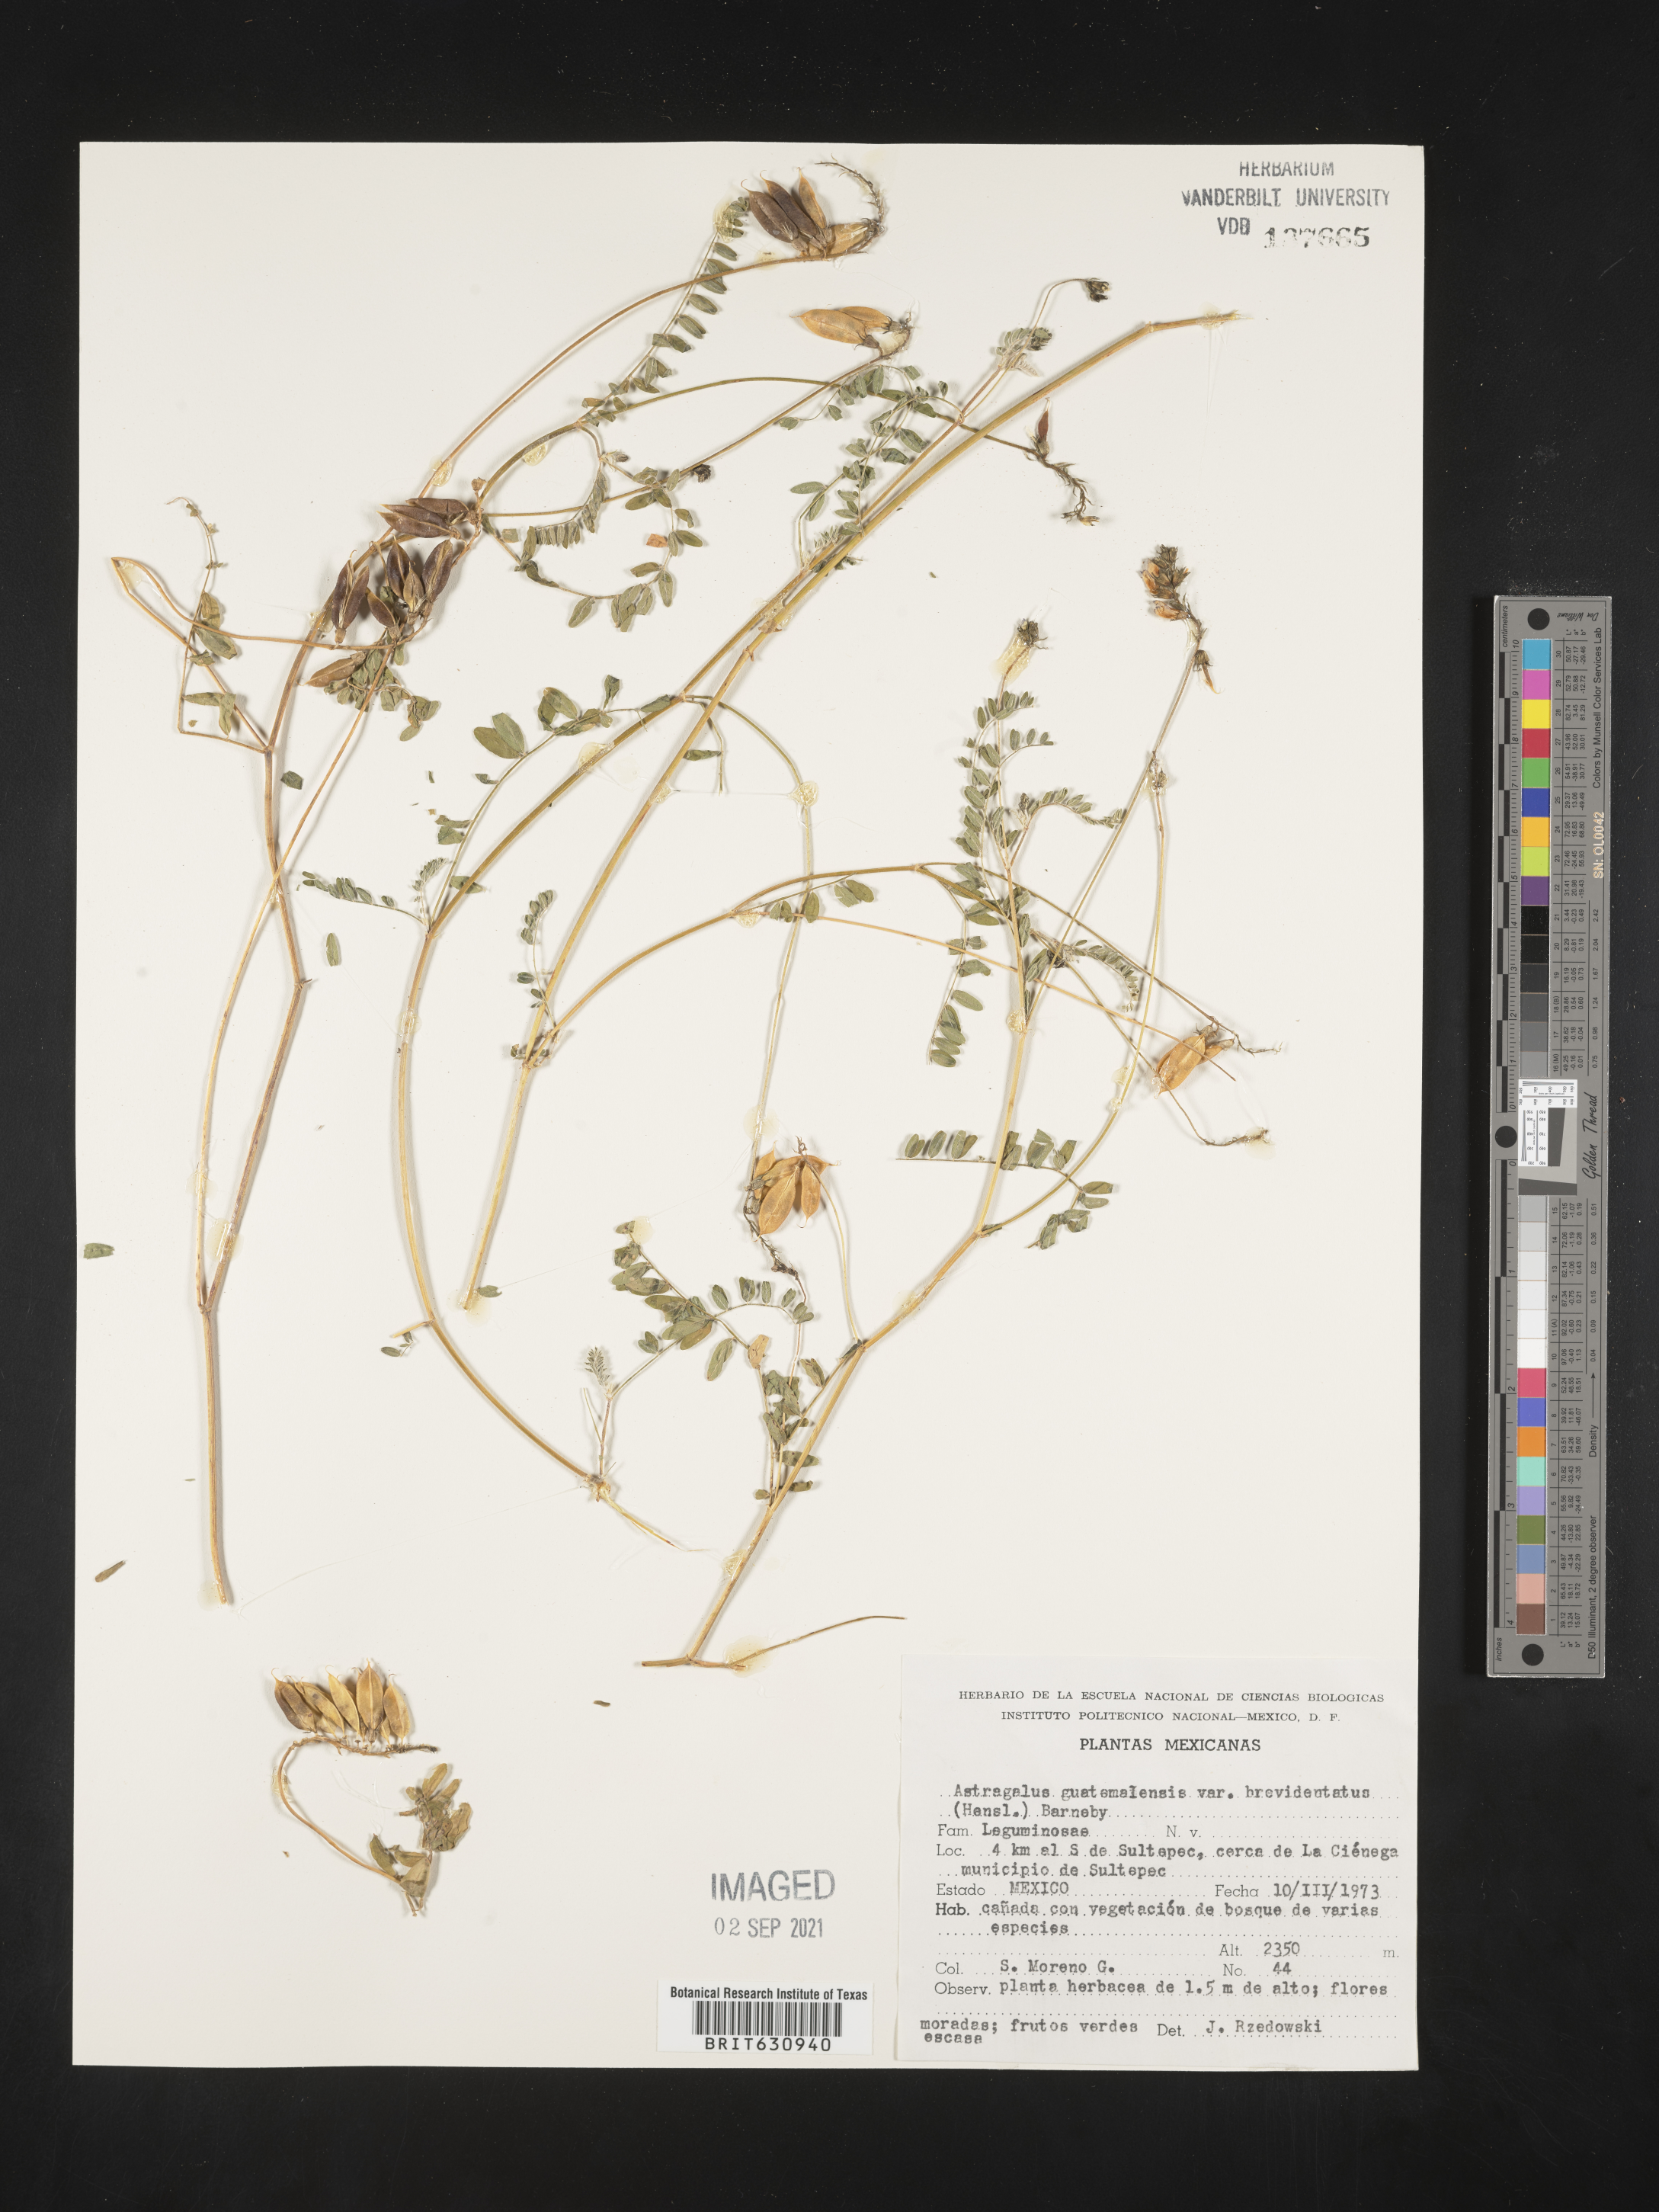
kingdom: Plantae
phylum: Tracheophyta
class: Magnoliopsida
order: Fabales
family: Fabaceae
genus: Astragalus
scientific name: Astragalus
